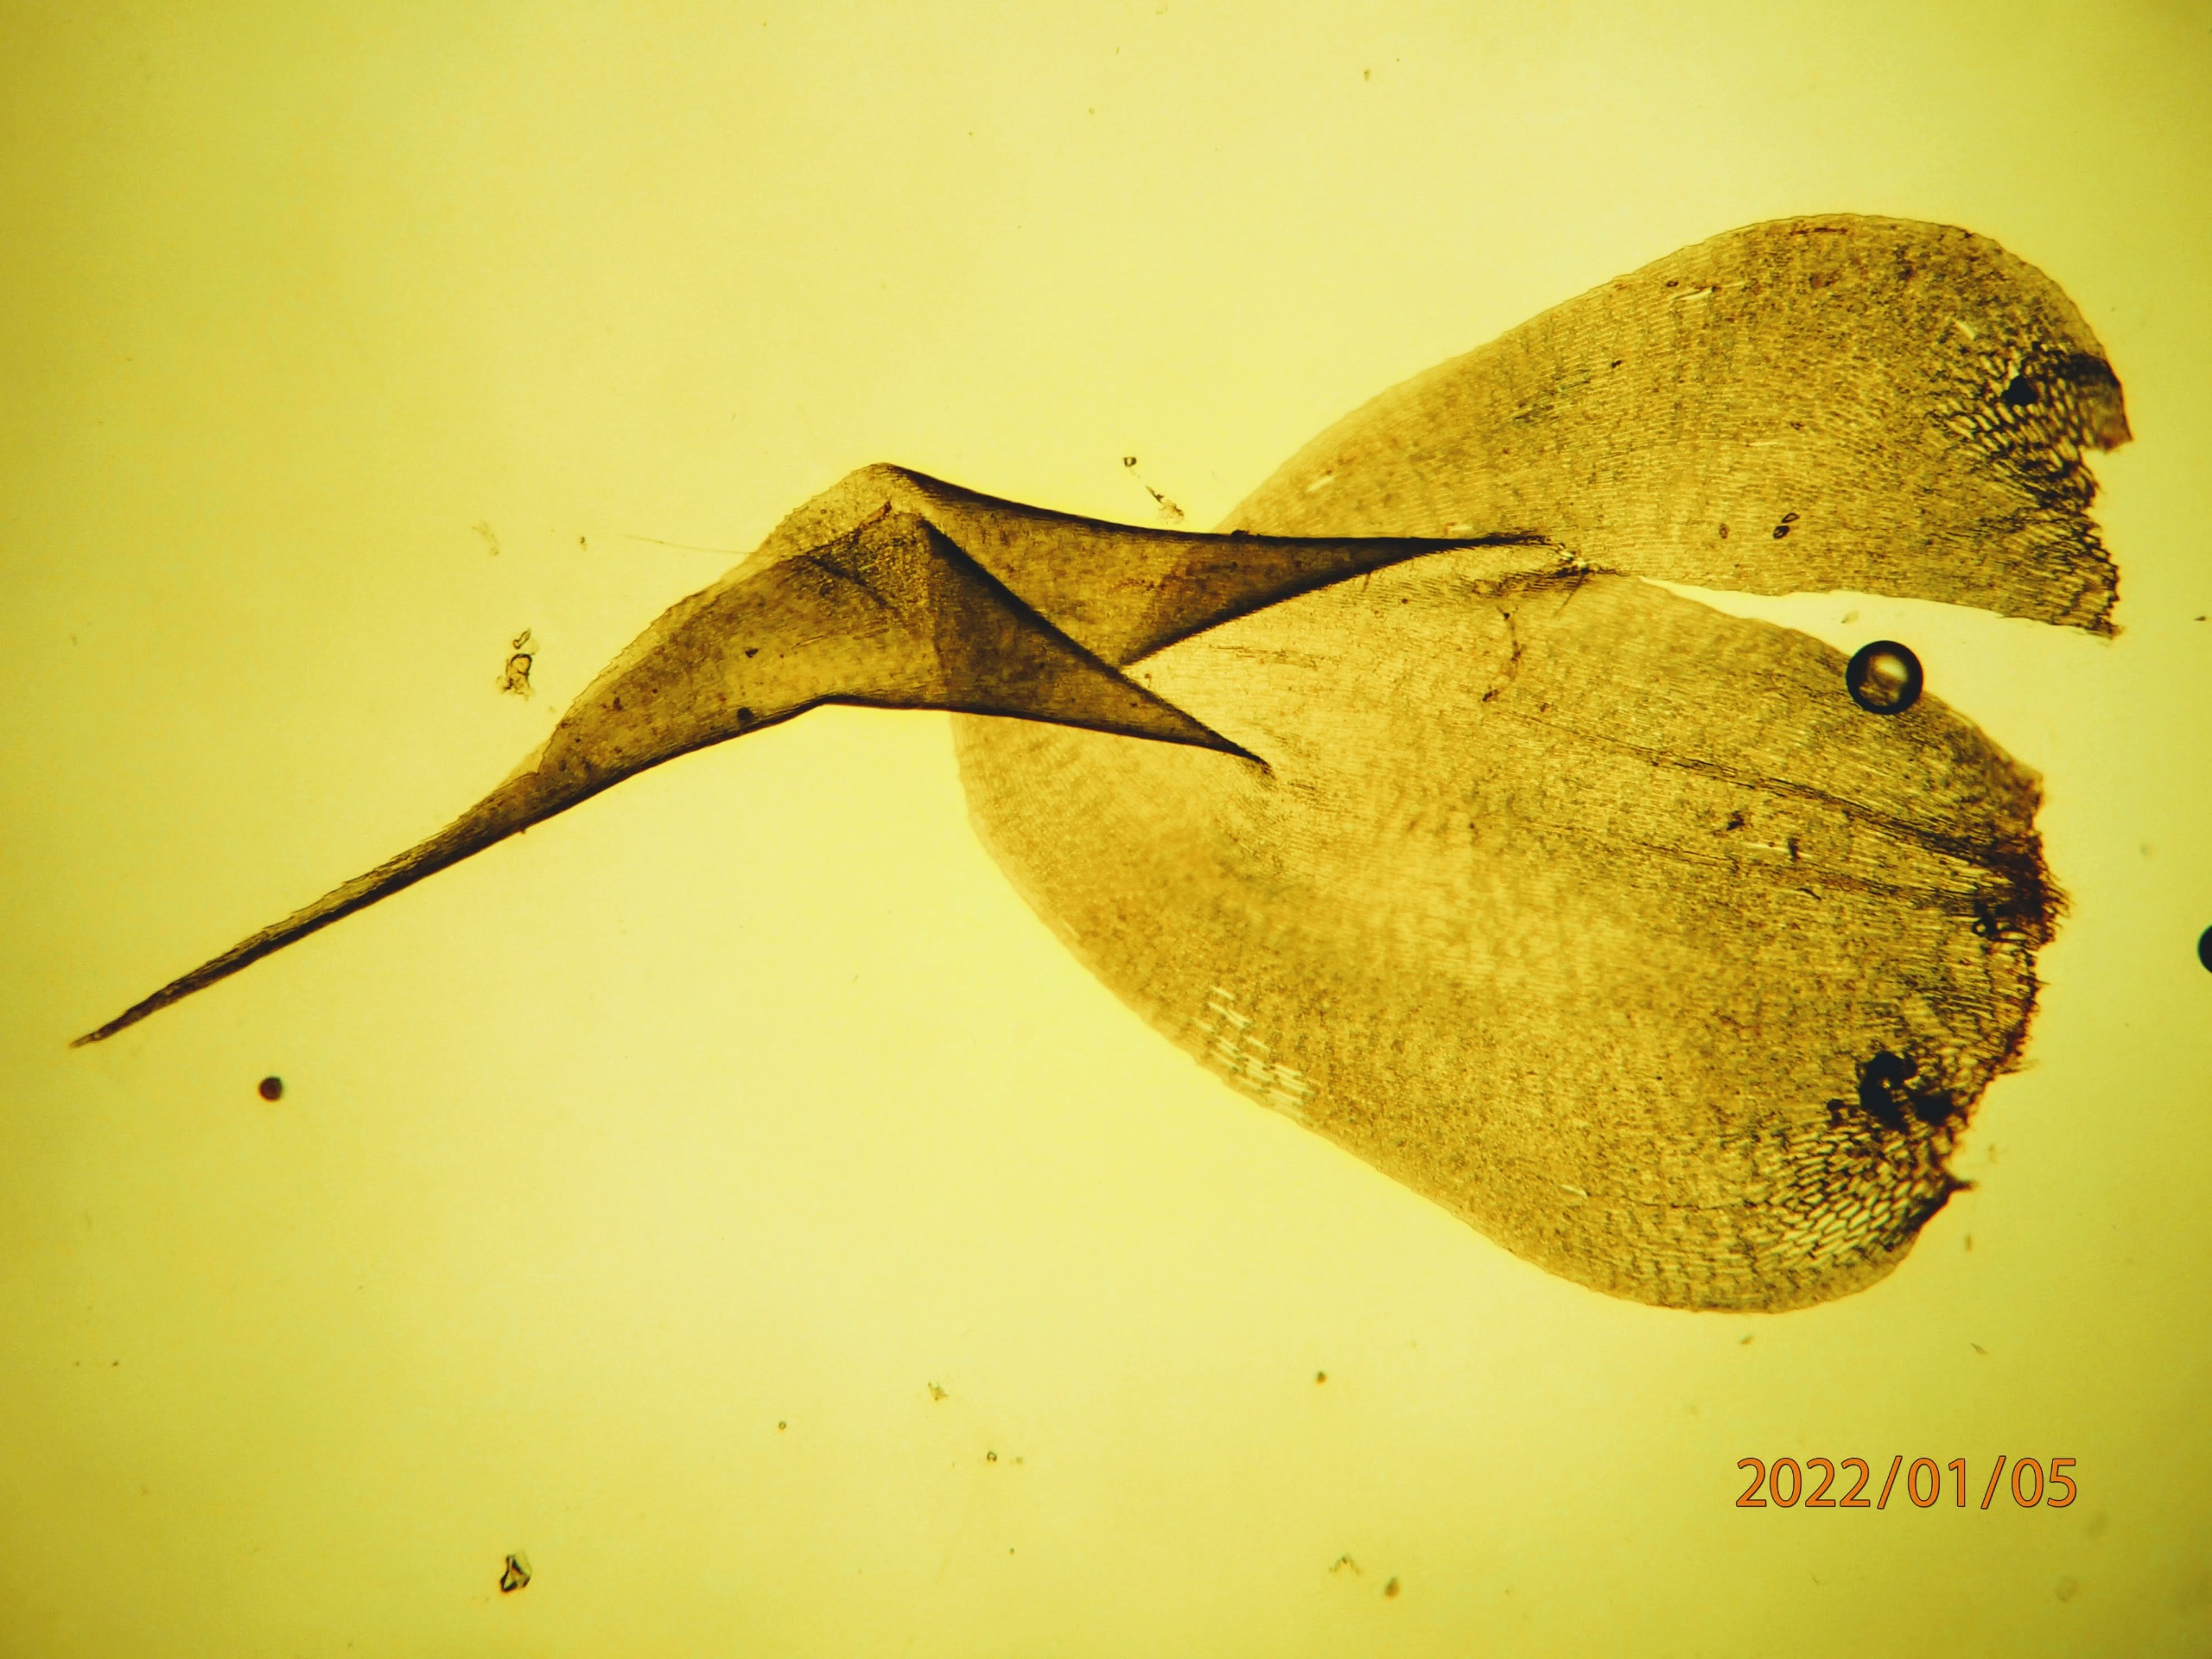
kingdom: Plantae
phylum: Bryophyta
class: Bryopsida
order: Hypnales
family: Hylocomiaceae
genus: Rhytidiadelphus
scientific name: Rhytidiadelphus squarrosus
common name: Plæne-kransemos
